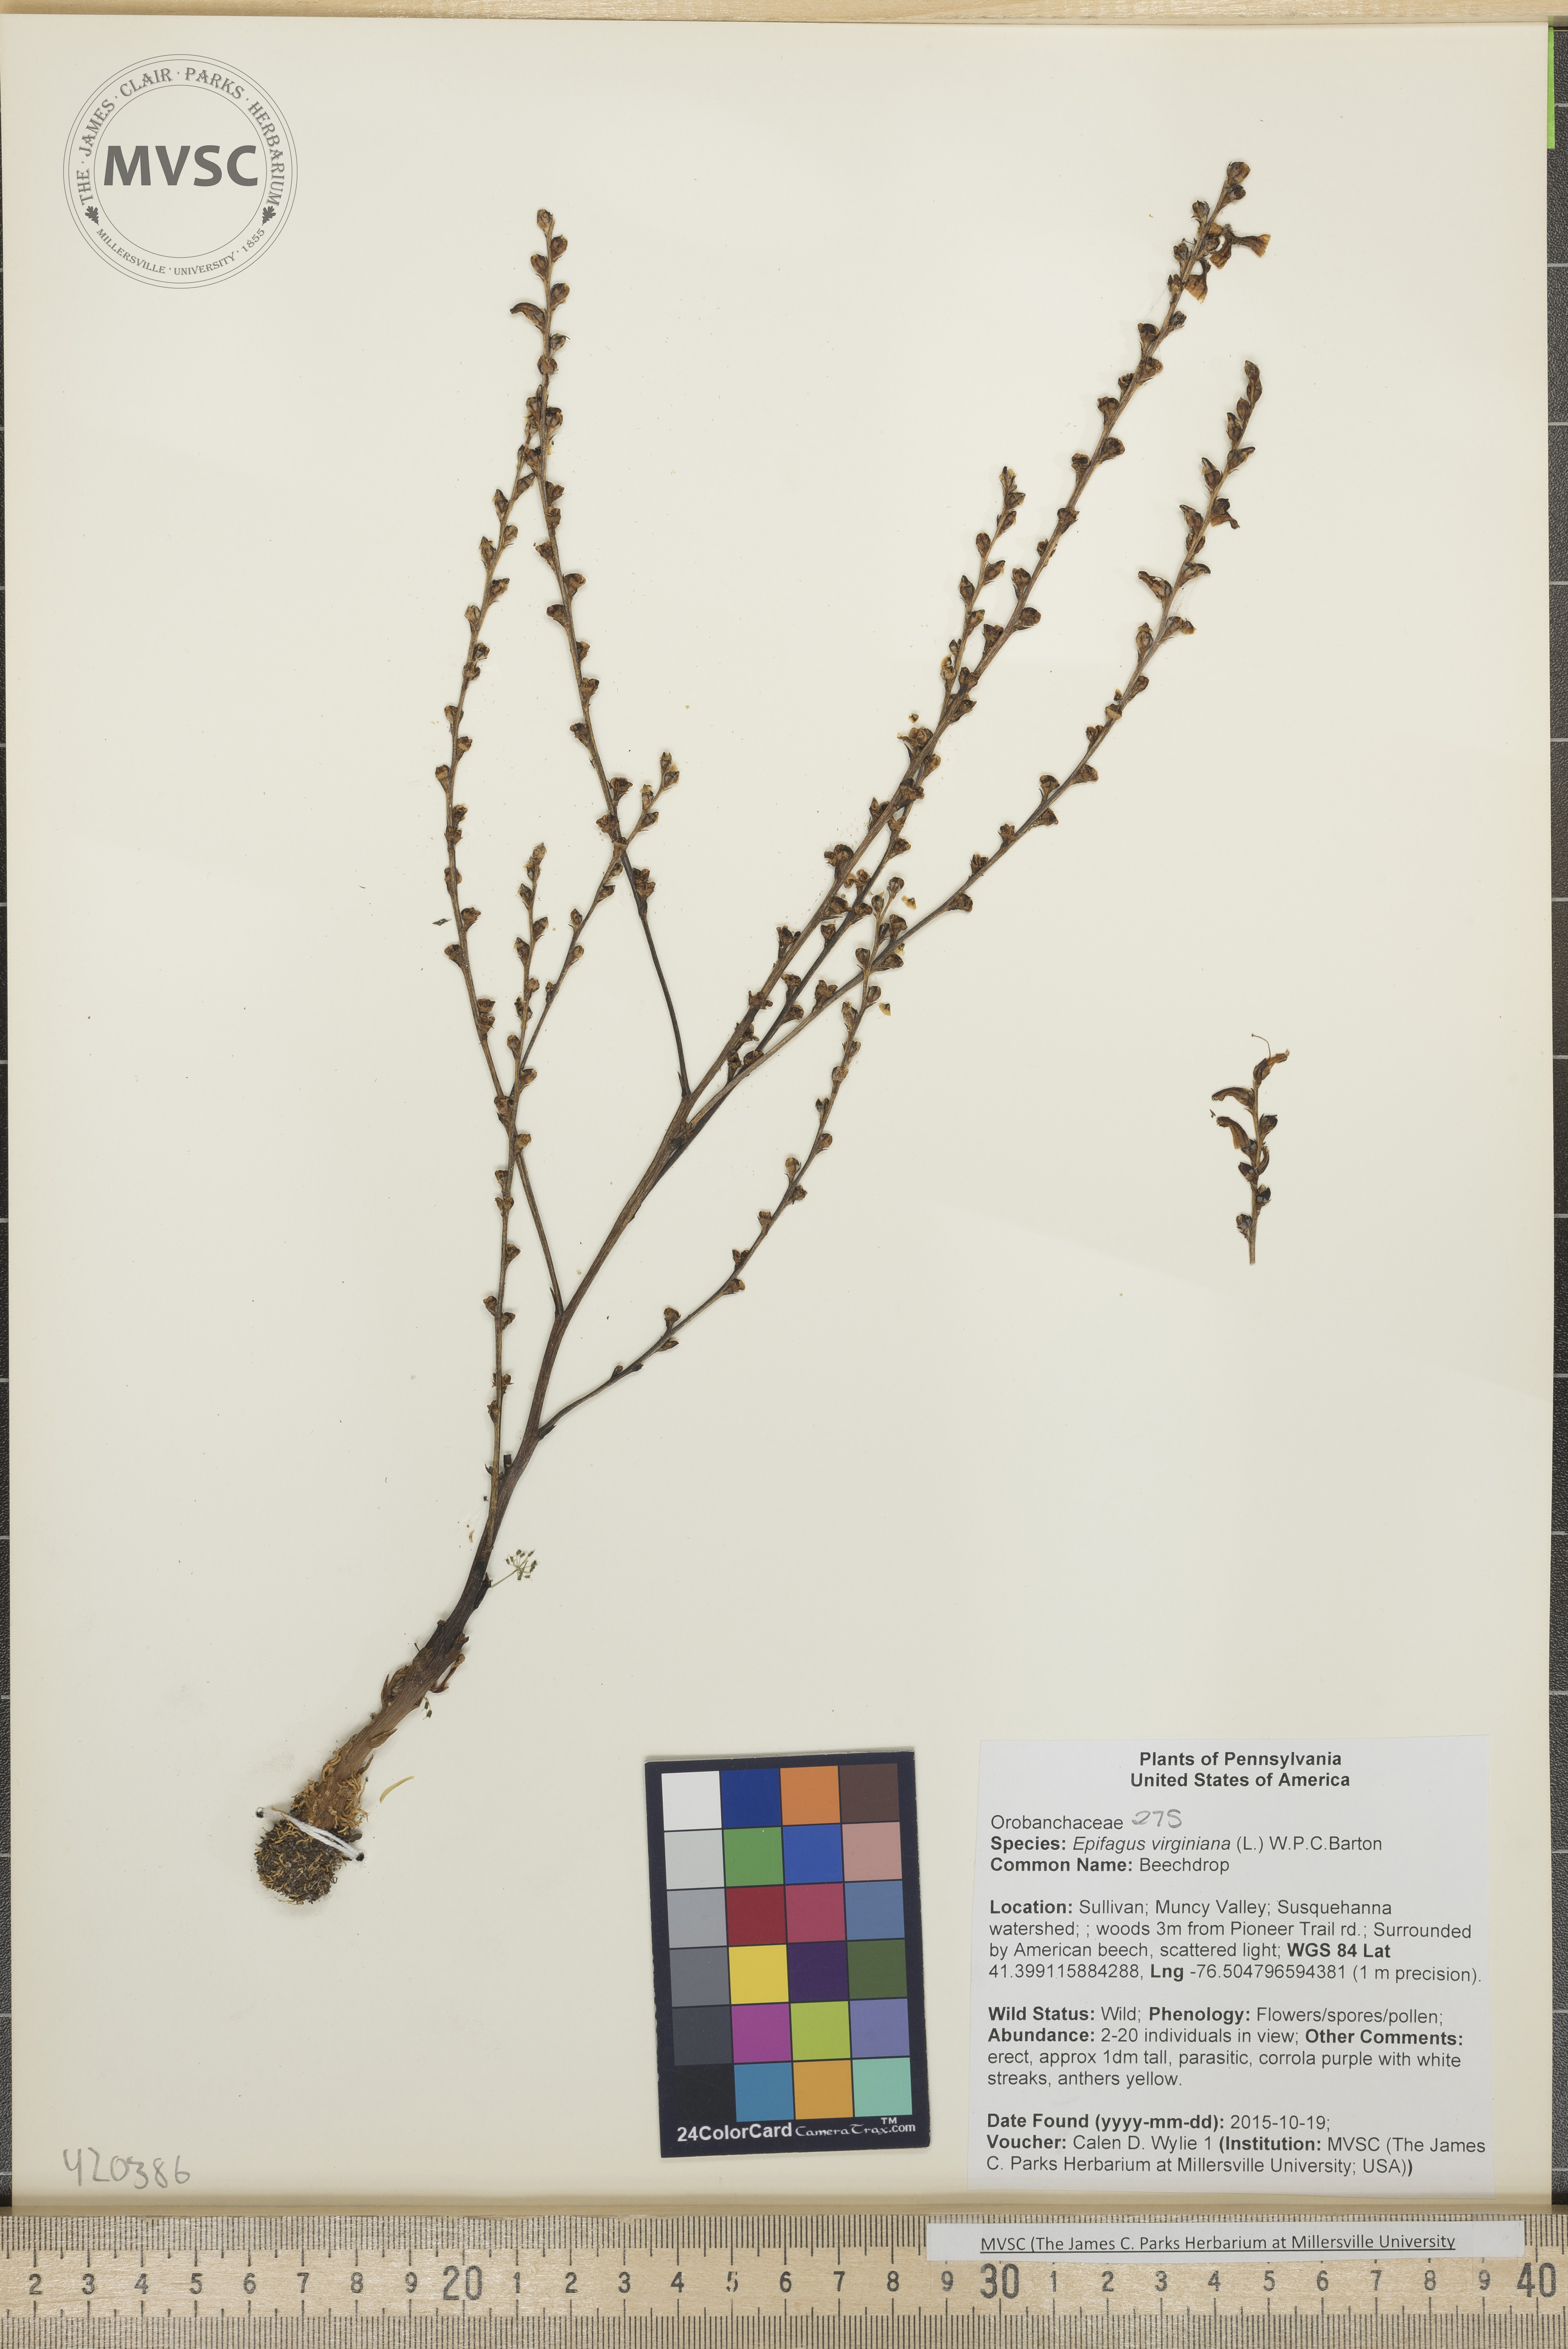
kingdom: Plantae
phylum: Tracheophyta
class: Magnoliopsida
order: Lamiales
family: Orobanchaceae
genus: Epifagus
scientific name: Epifagus virginiana
